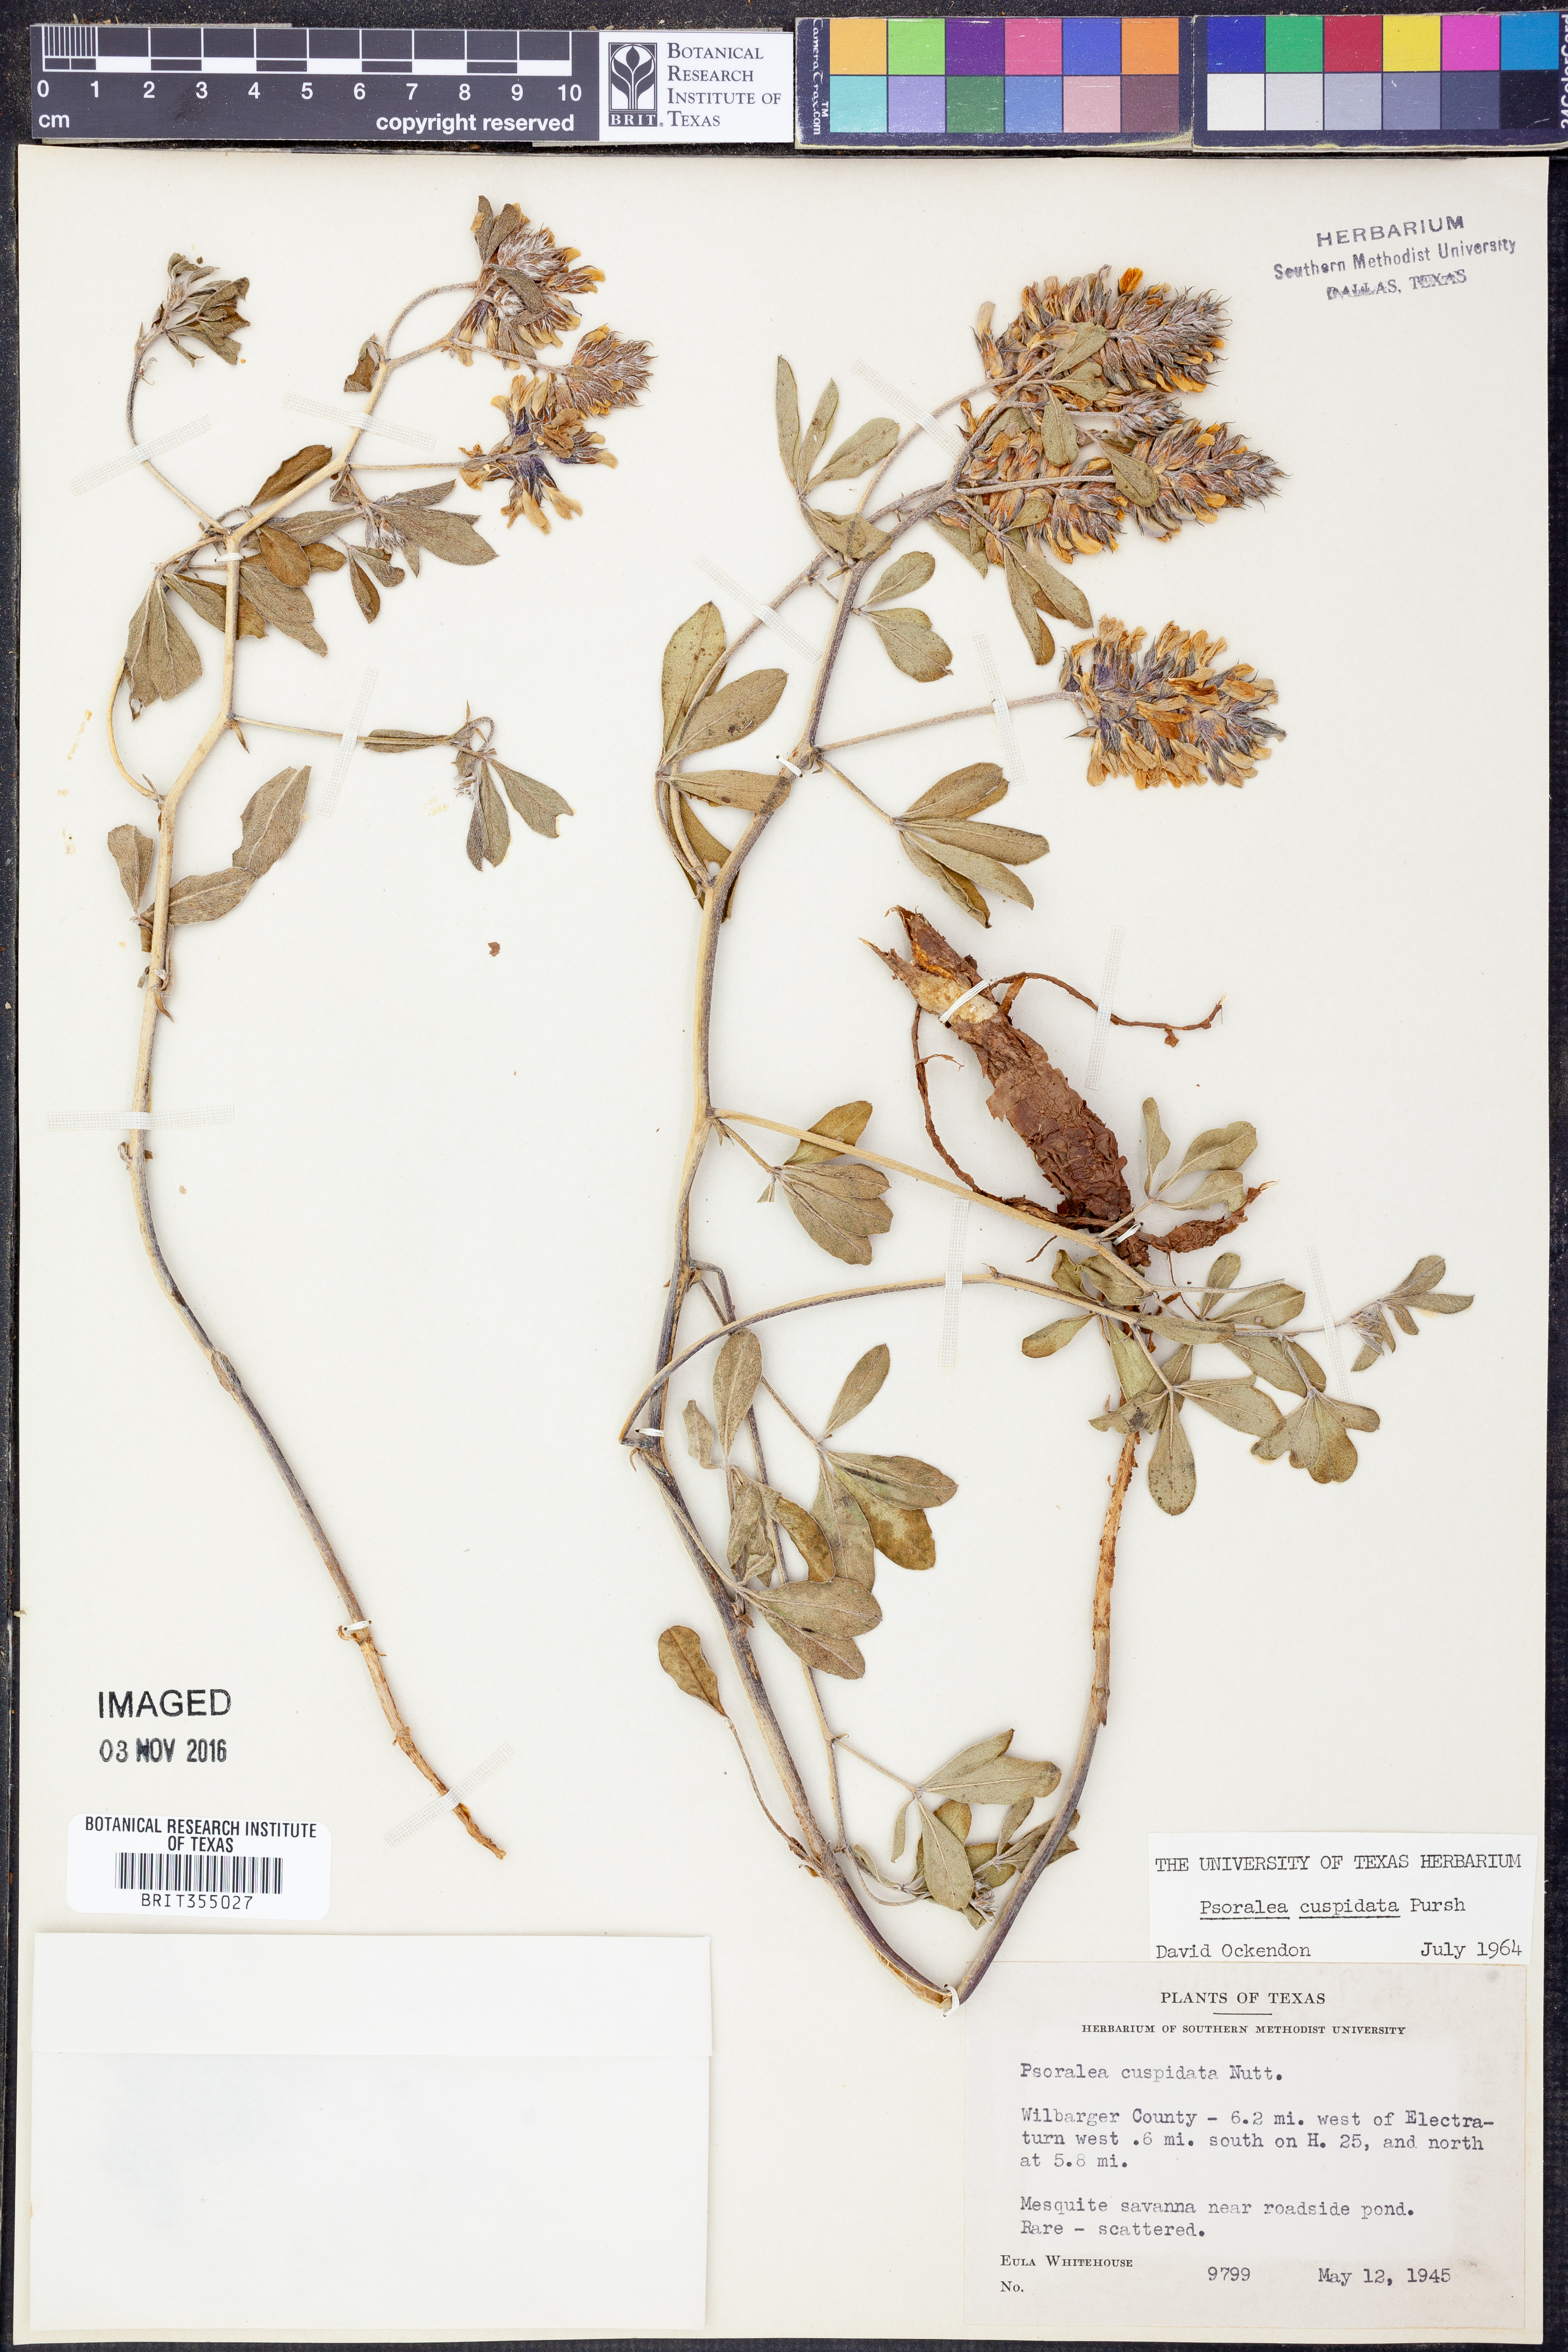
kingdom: Plantae
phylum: Tracheophyta
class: Magnoliopsida
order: Fabales
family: Fabaceae
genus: Pediomelum
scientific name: Pediomelum cuspidatum
